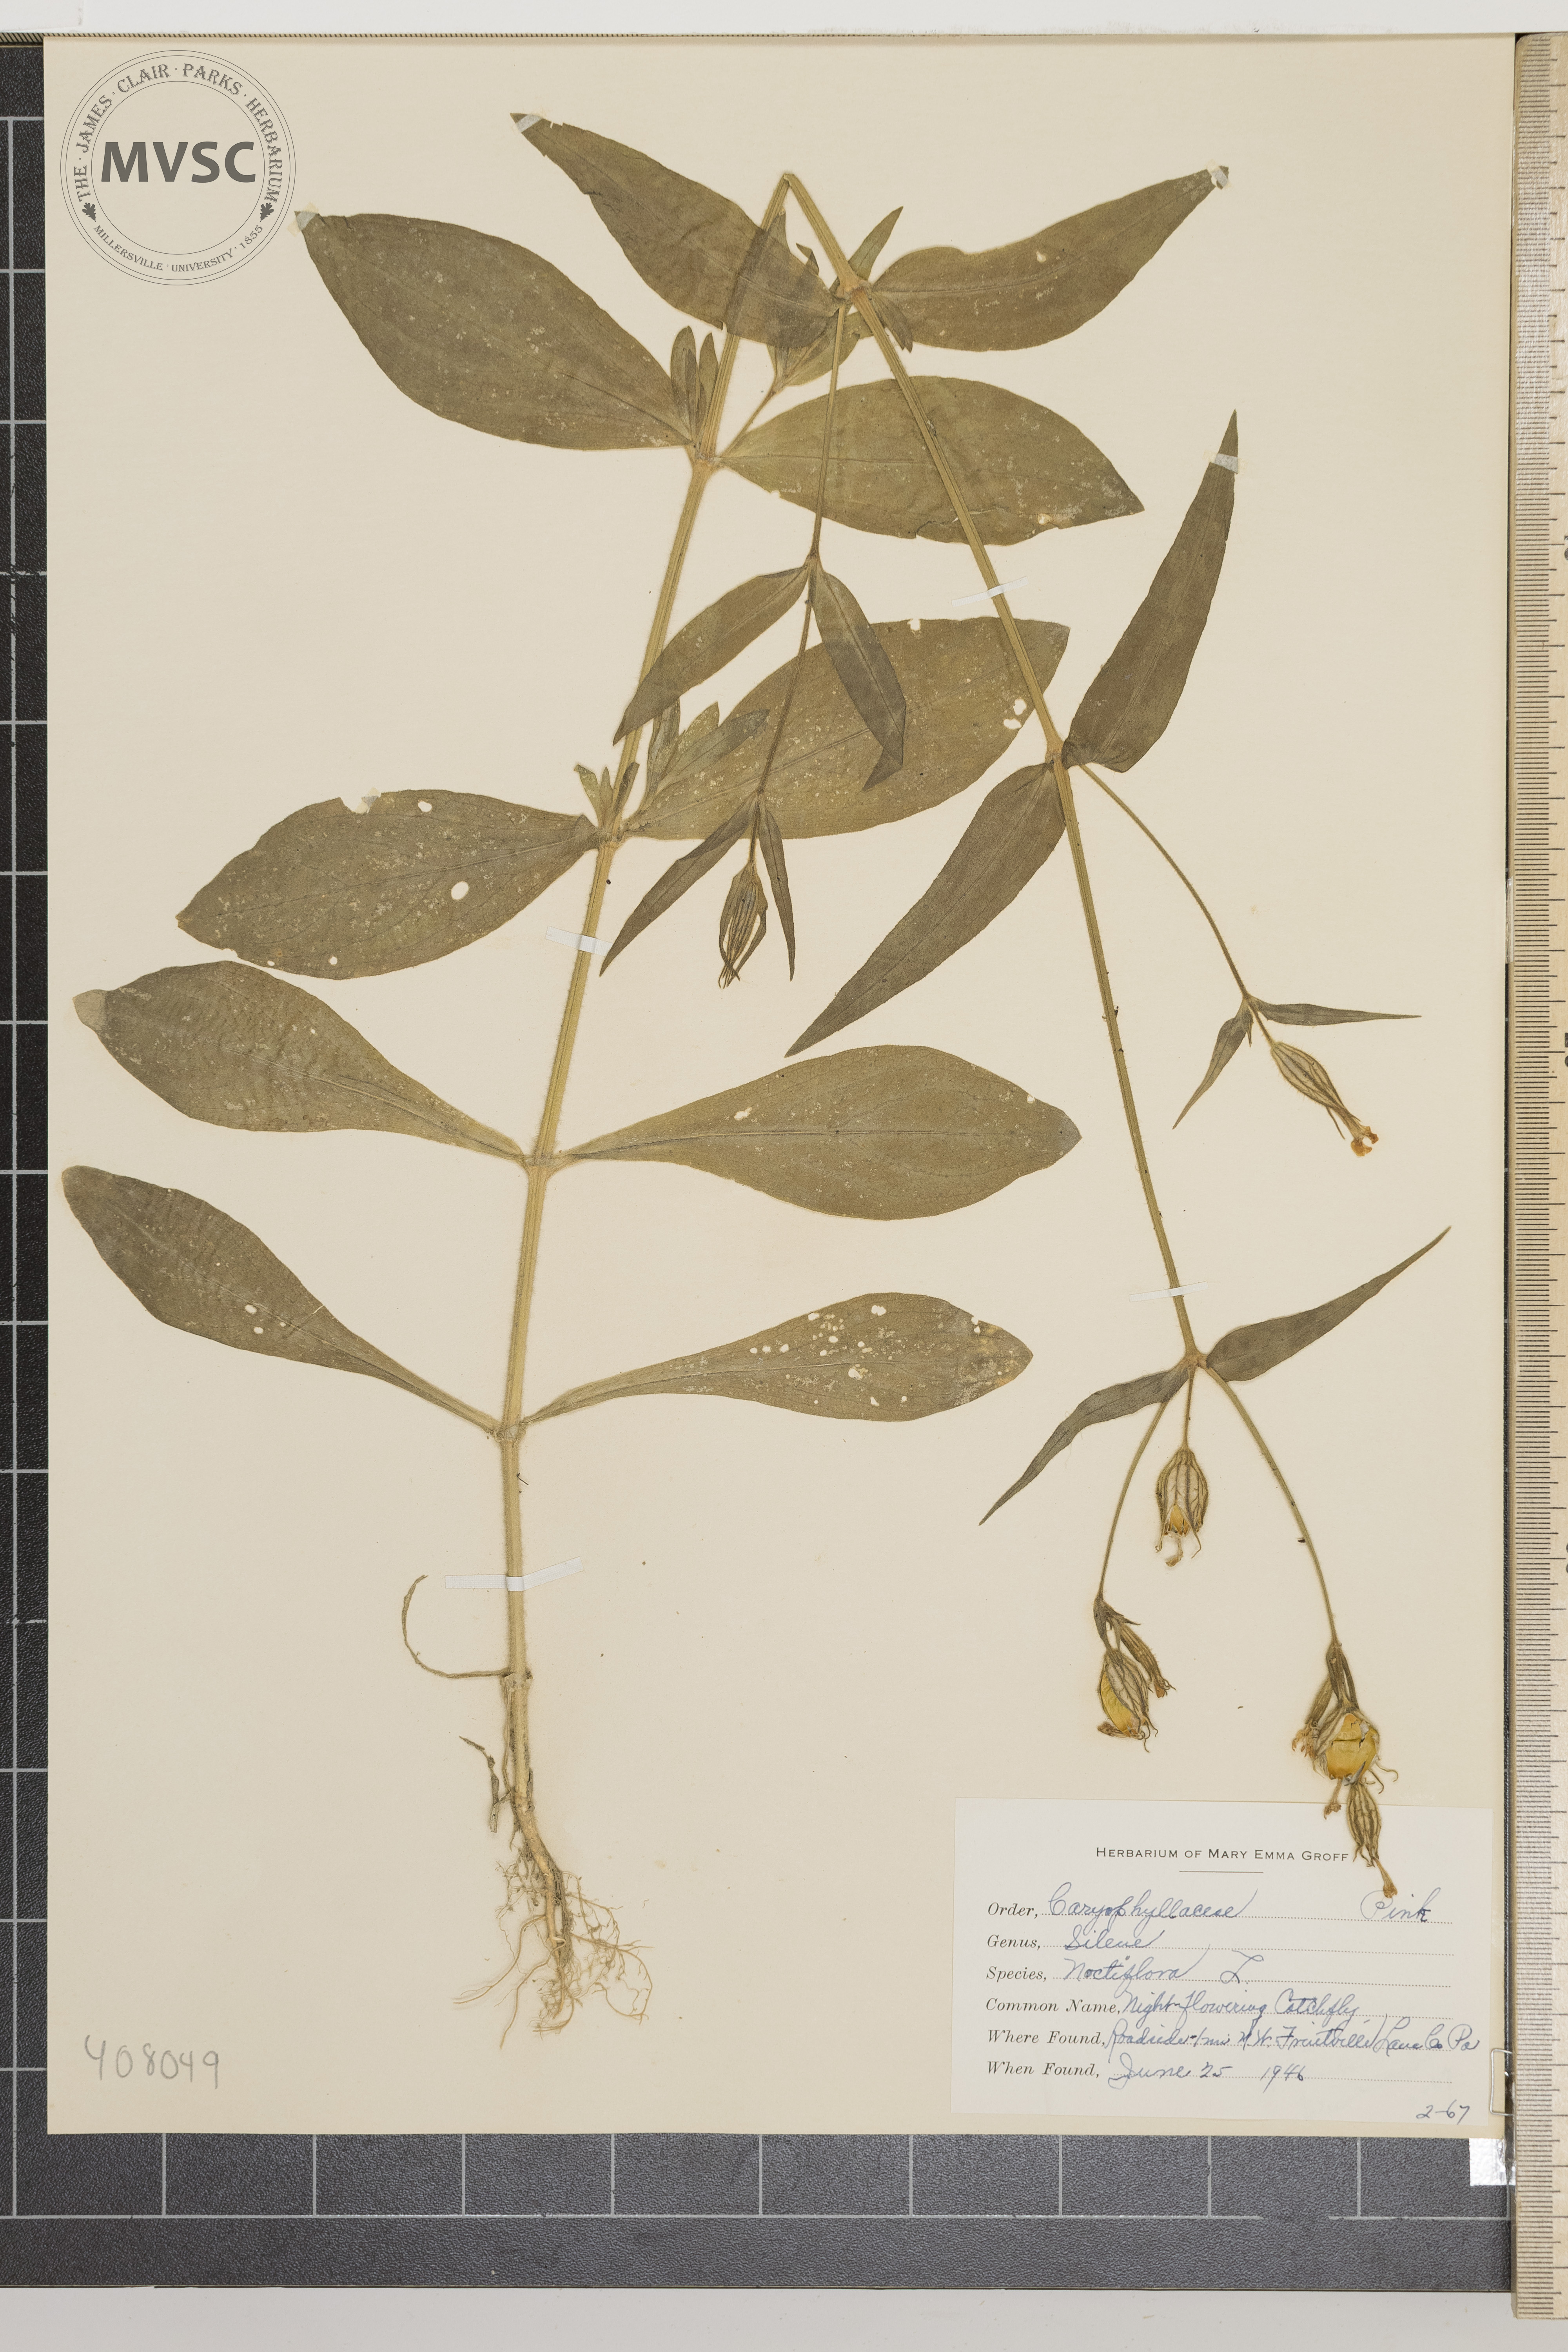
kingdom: Plantae
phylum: Tracheophyta
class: Magnoliopsida
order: Caryophyllales
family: Caryophyllaceae
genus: Silene
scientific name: Silene noctiflora
